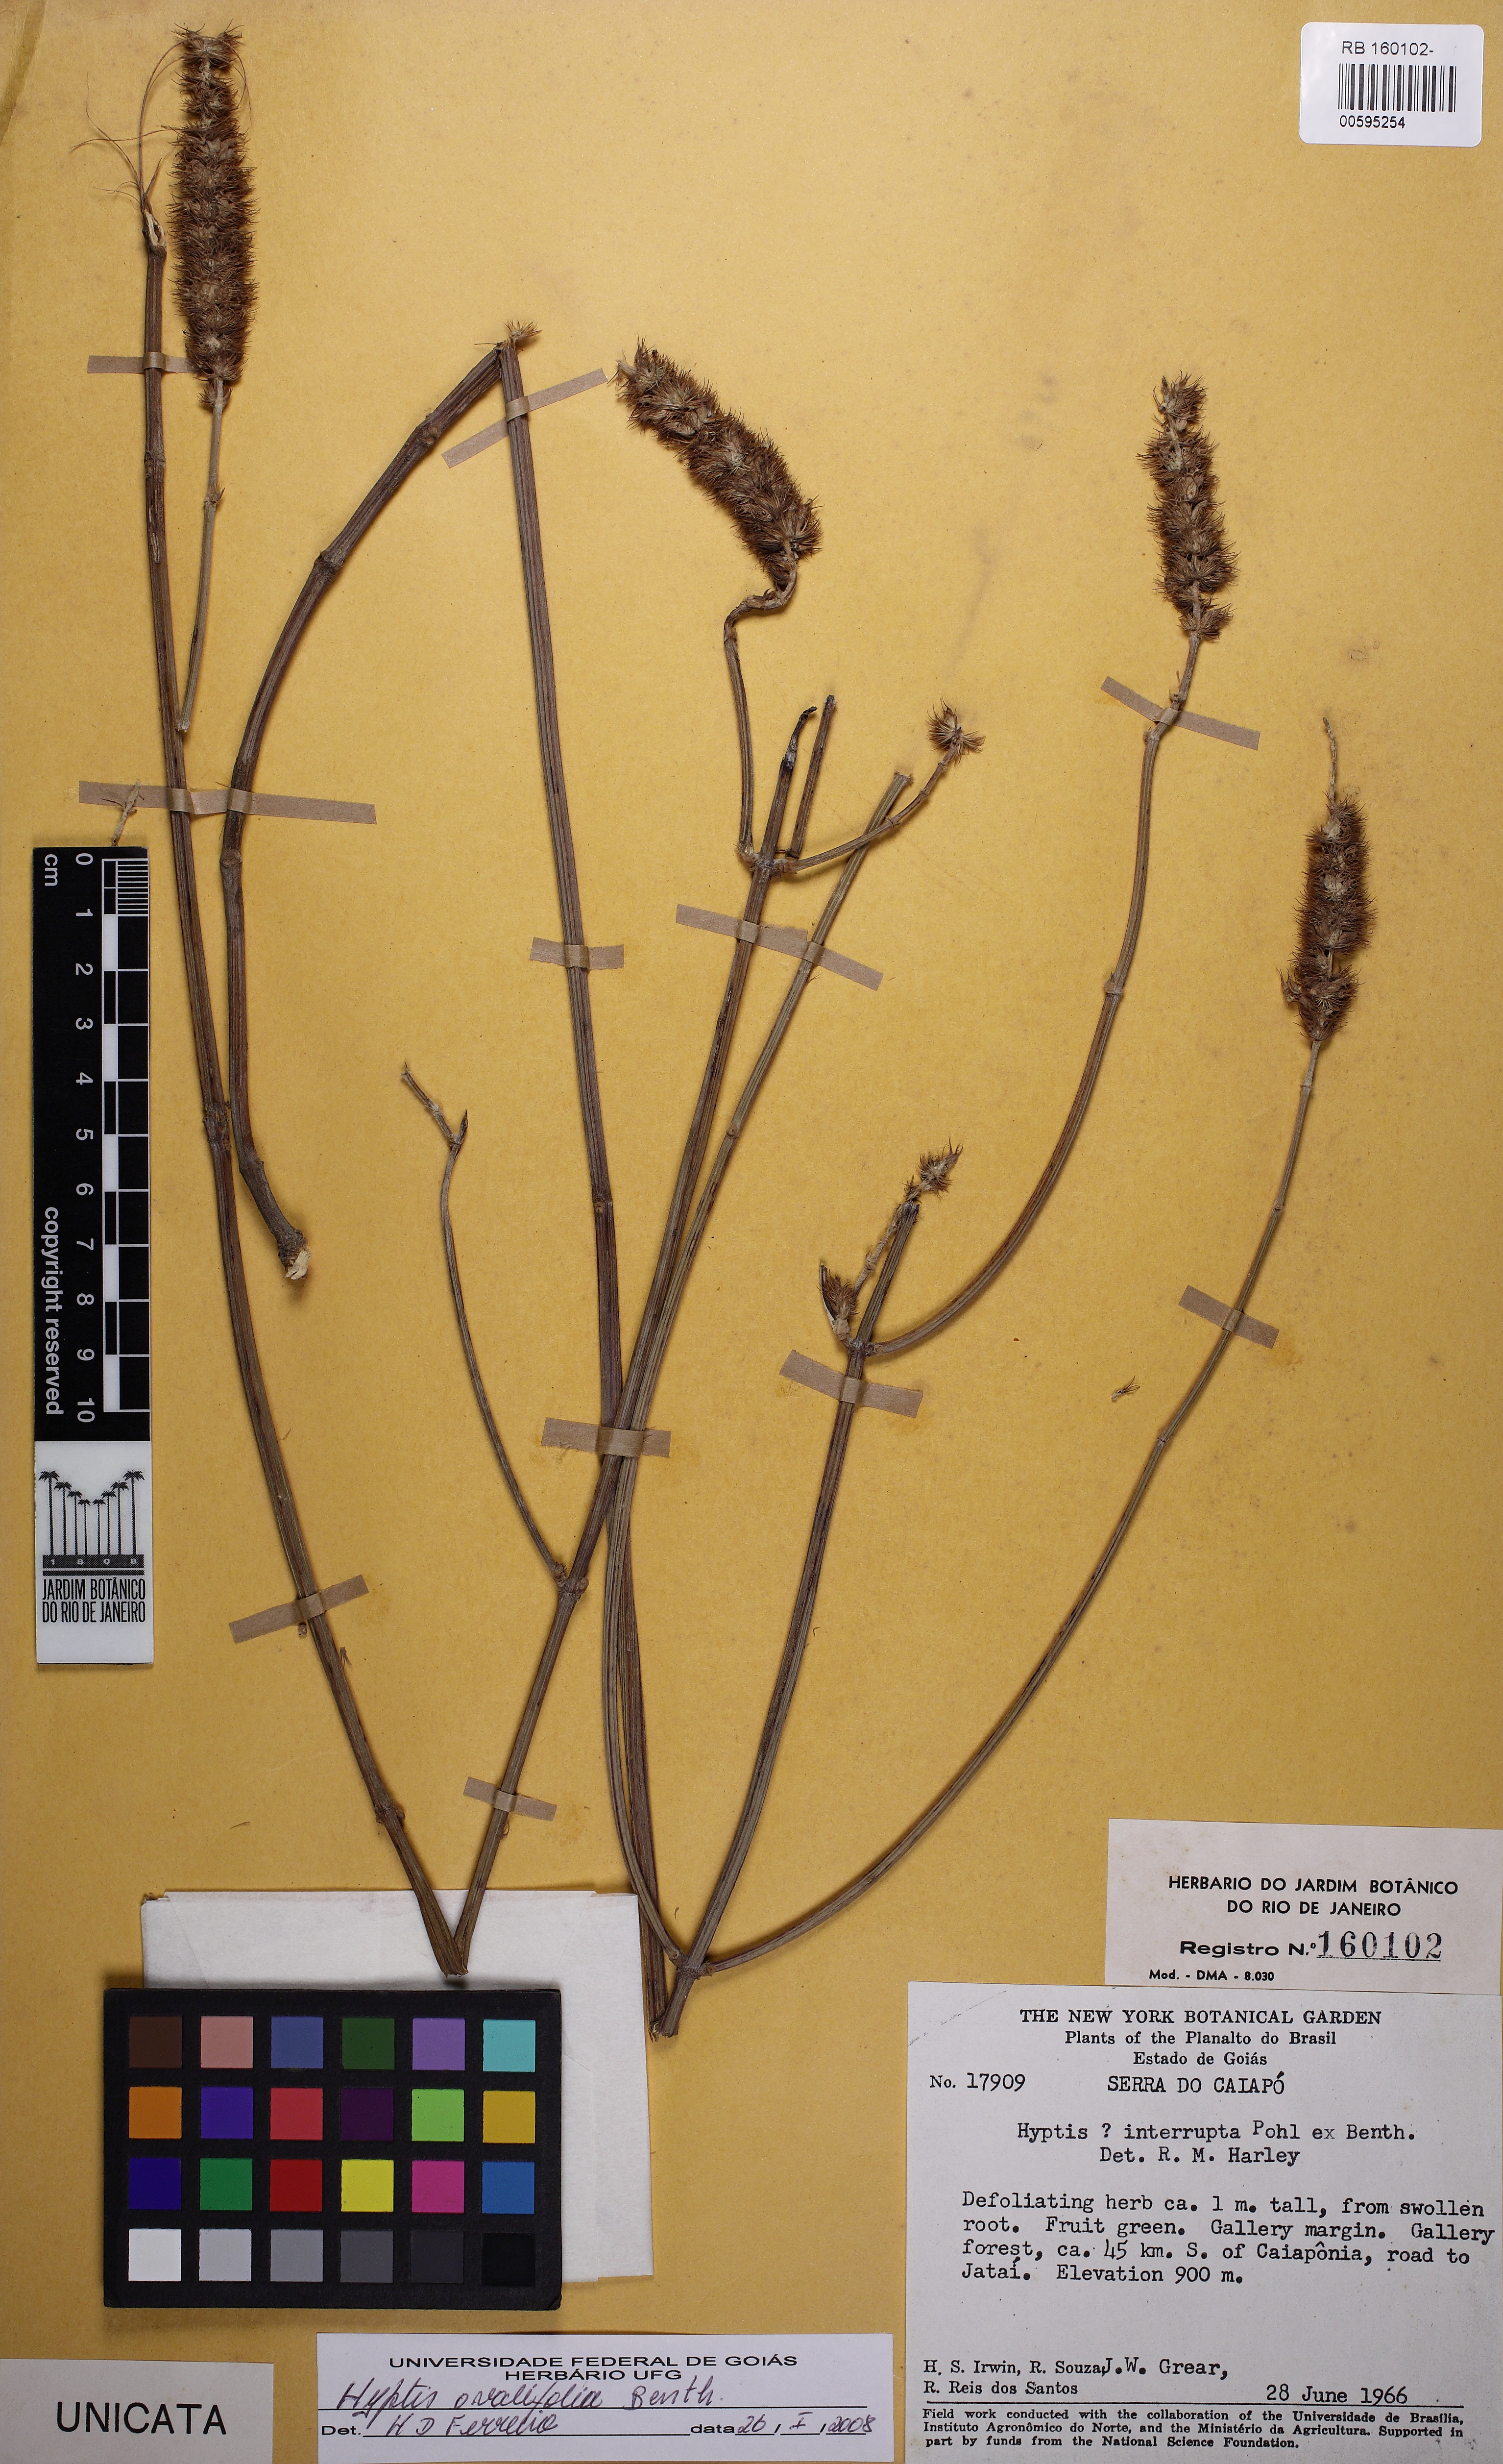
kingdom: Plantae
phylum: Tracheophyta
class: Magnoliopsida
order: Lamiales
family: Lamiaceae
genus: Hyptis
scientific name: Hyptis ovalifolia
